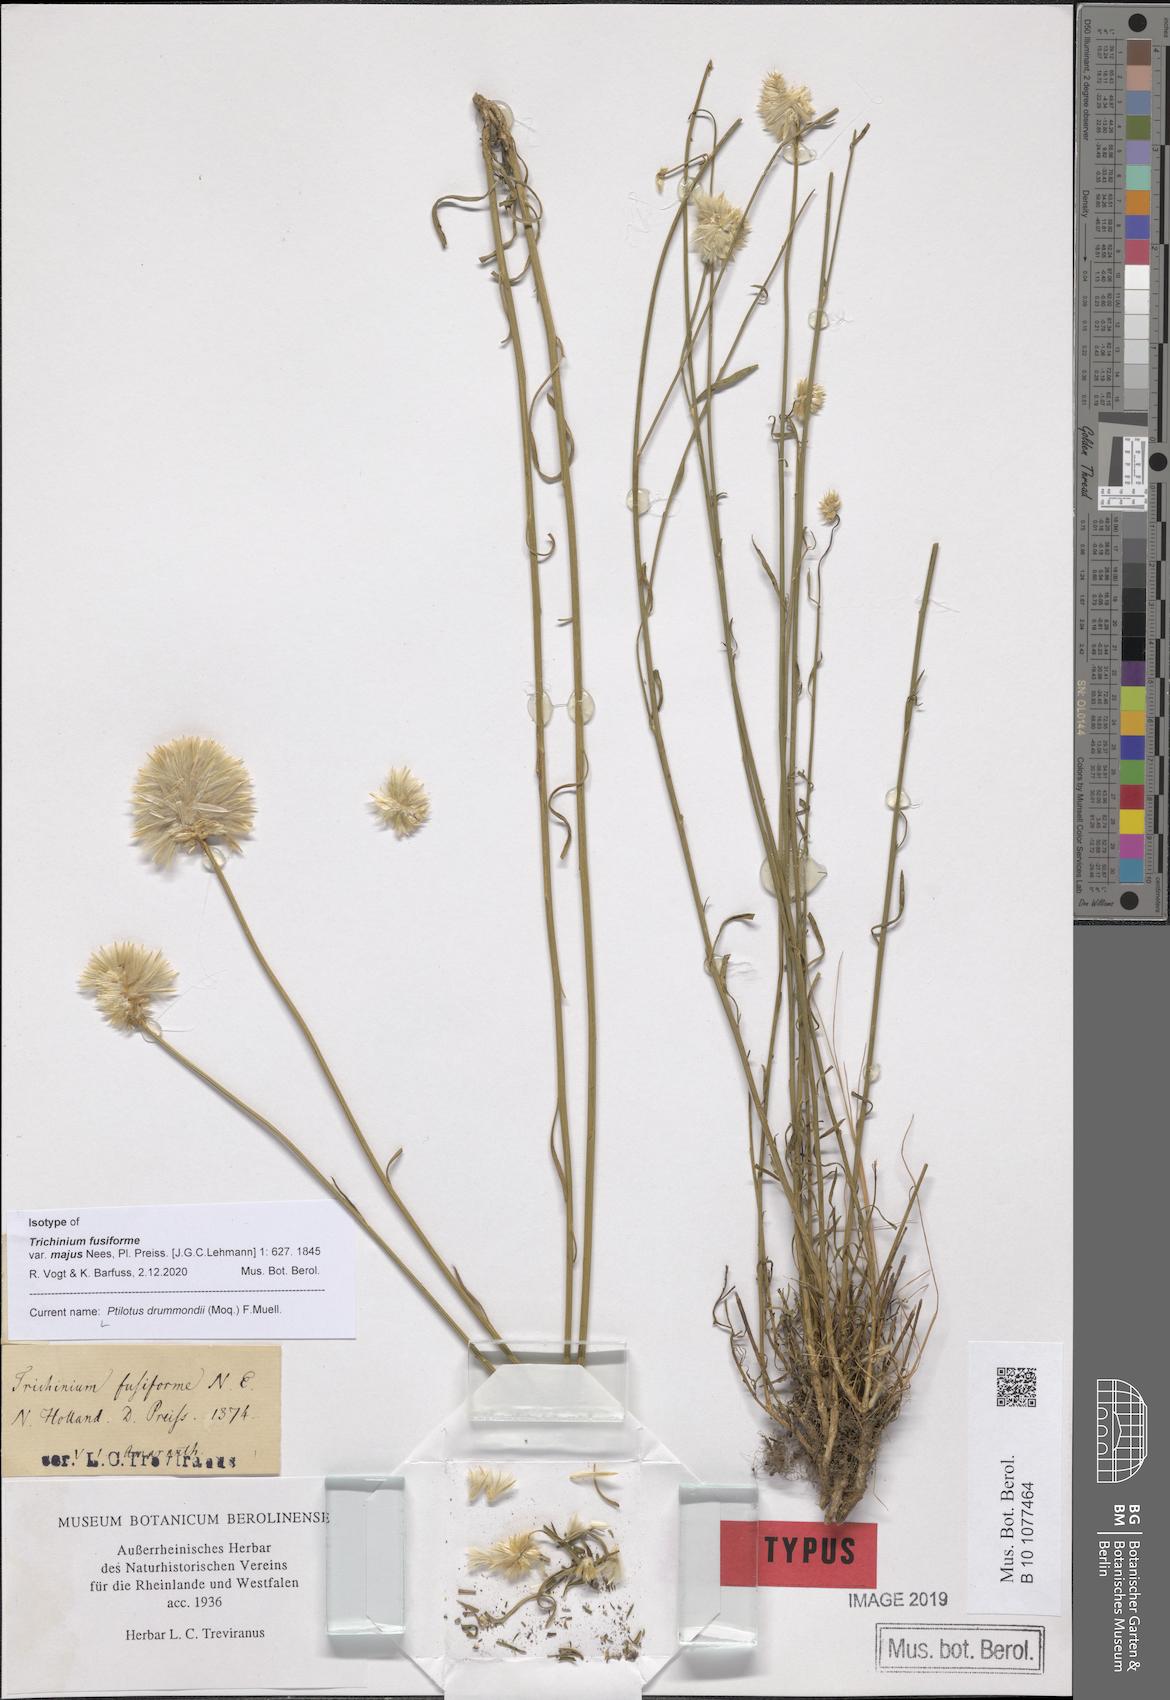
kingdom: Plantae
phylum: Tracheophyta
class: Magnoliopsida
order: Caryophyllales
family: Amaranthaceae
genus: Ptilotus
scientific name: Ptilotus drummondii
